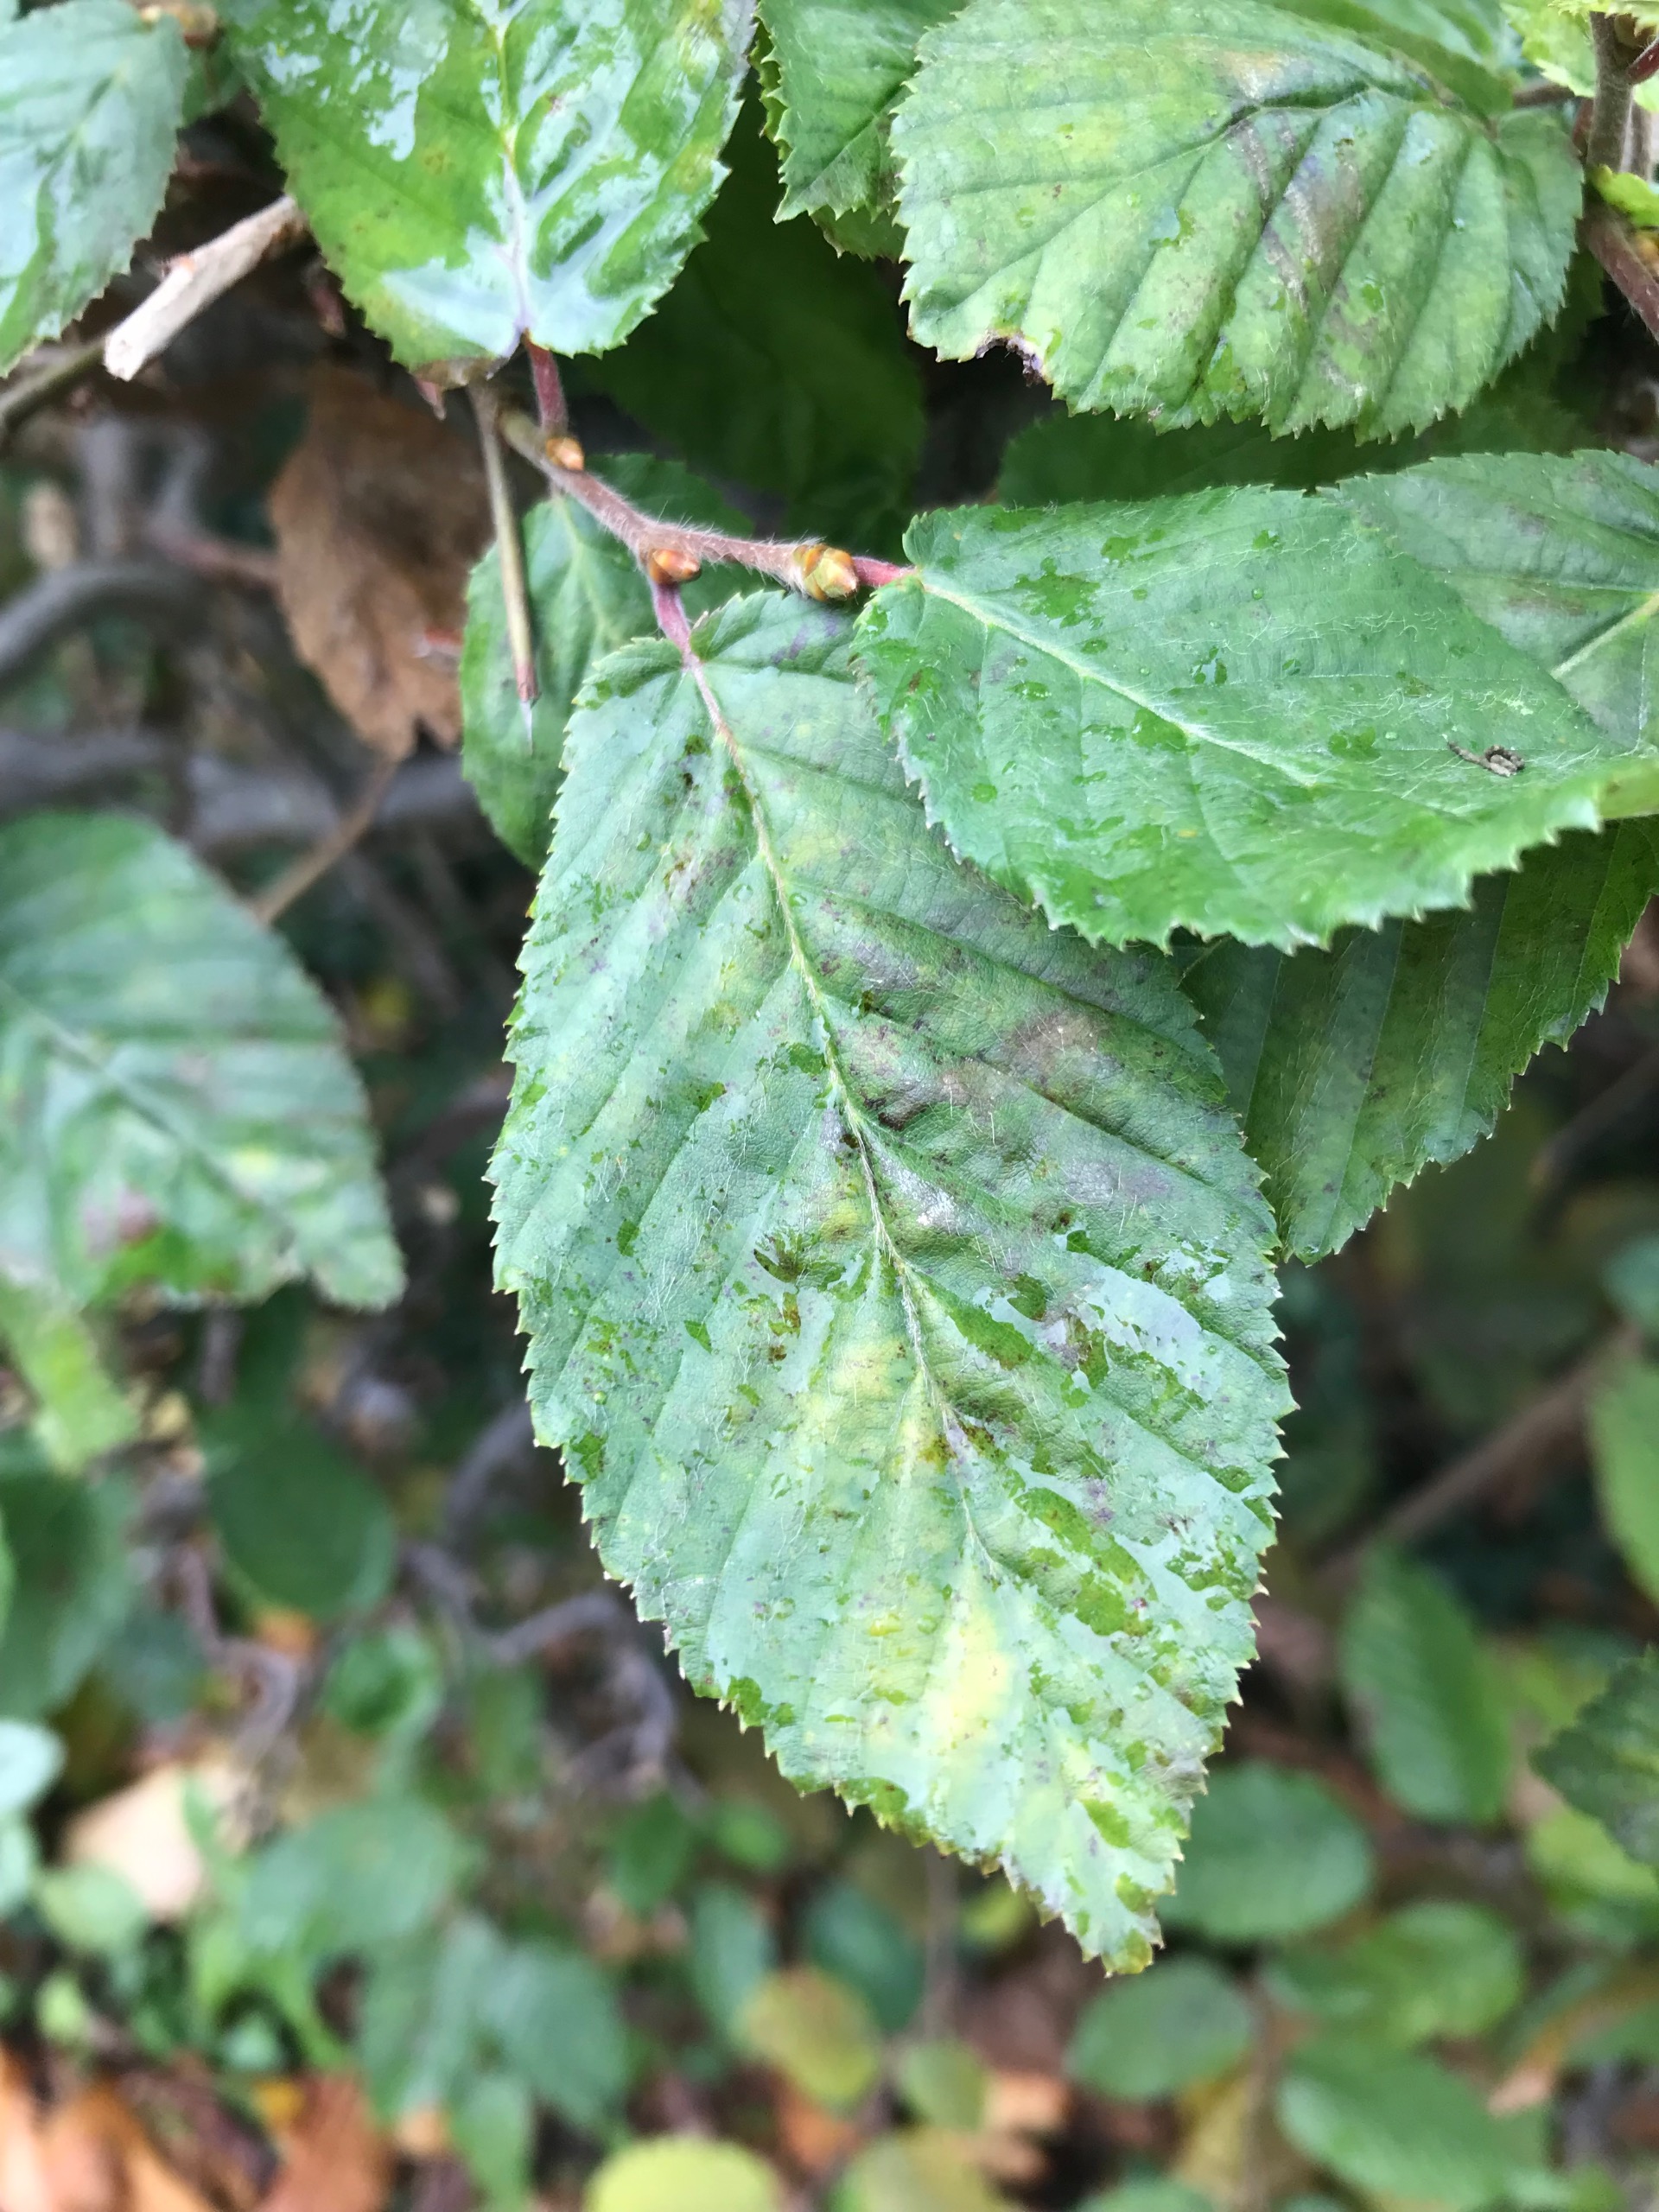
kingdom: Plantae
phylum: Tracheophyta
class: Magnoliopsida
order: Fagales
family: Betulaceae
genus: Carpinus
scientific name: Carpinus betulus
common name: Avnbøg
